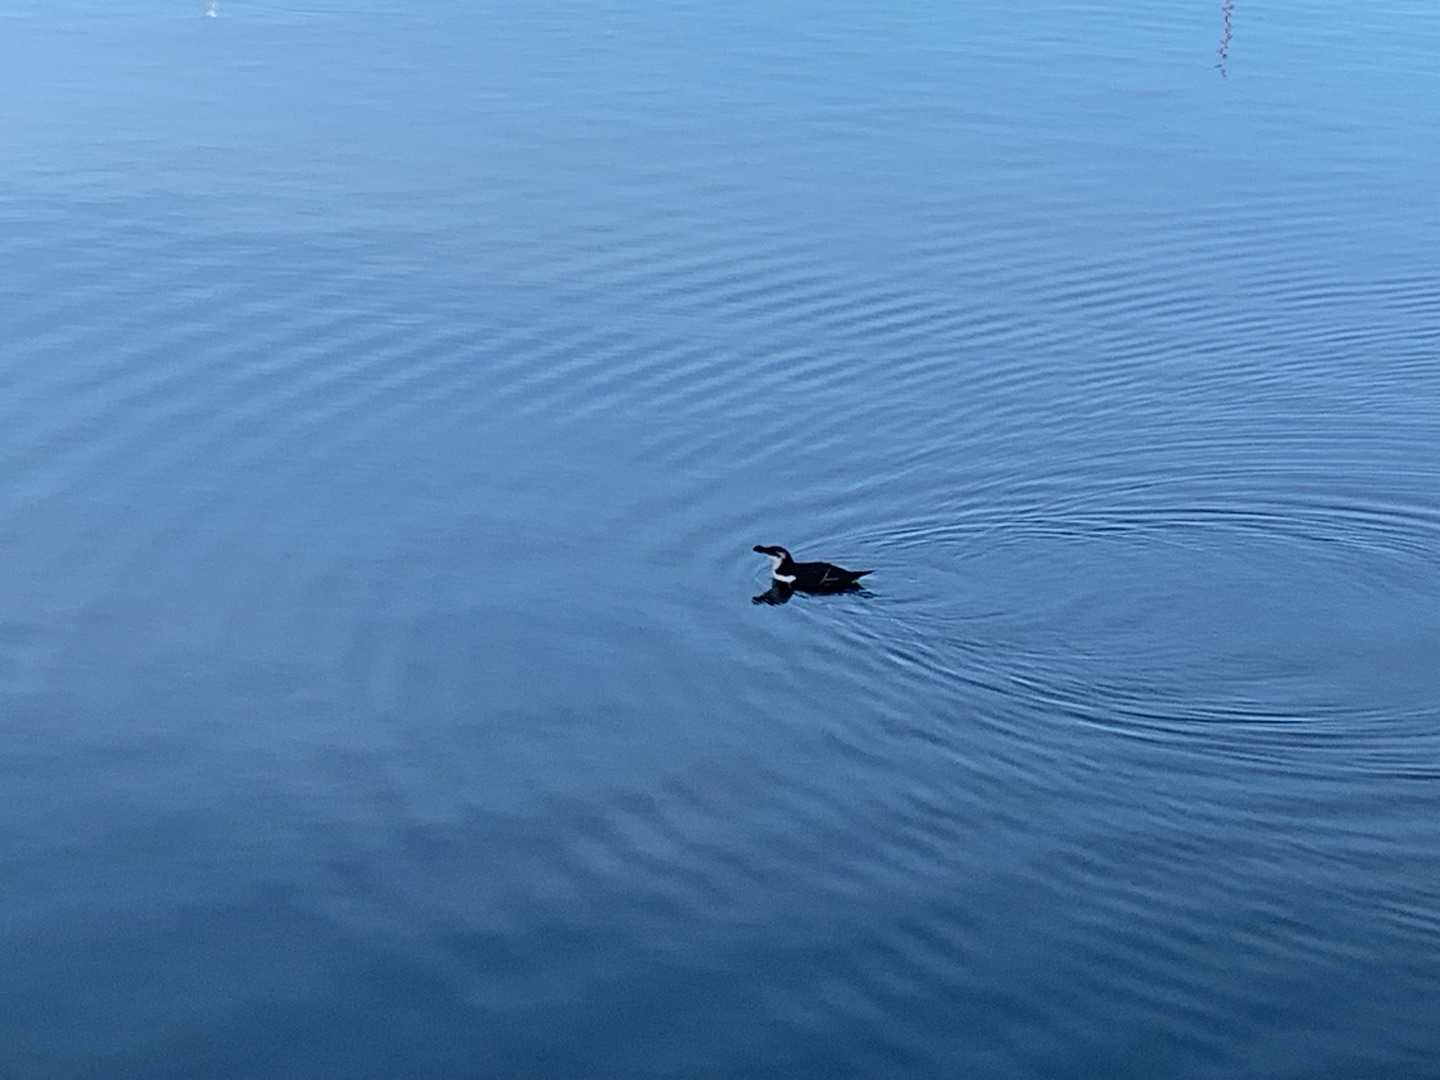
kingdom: Animalia
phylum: Chordata
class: Aves
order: Charadriiformes
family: Alcidae
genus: Alca
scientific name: Alca torda
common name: Alk
